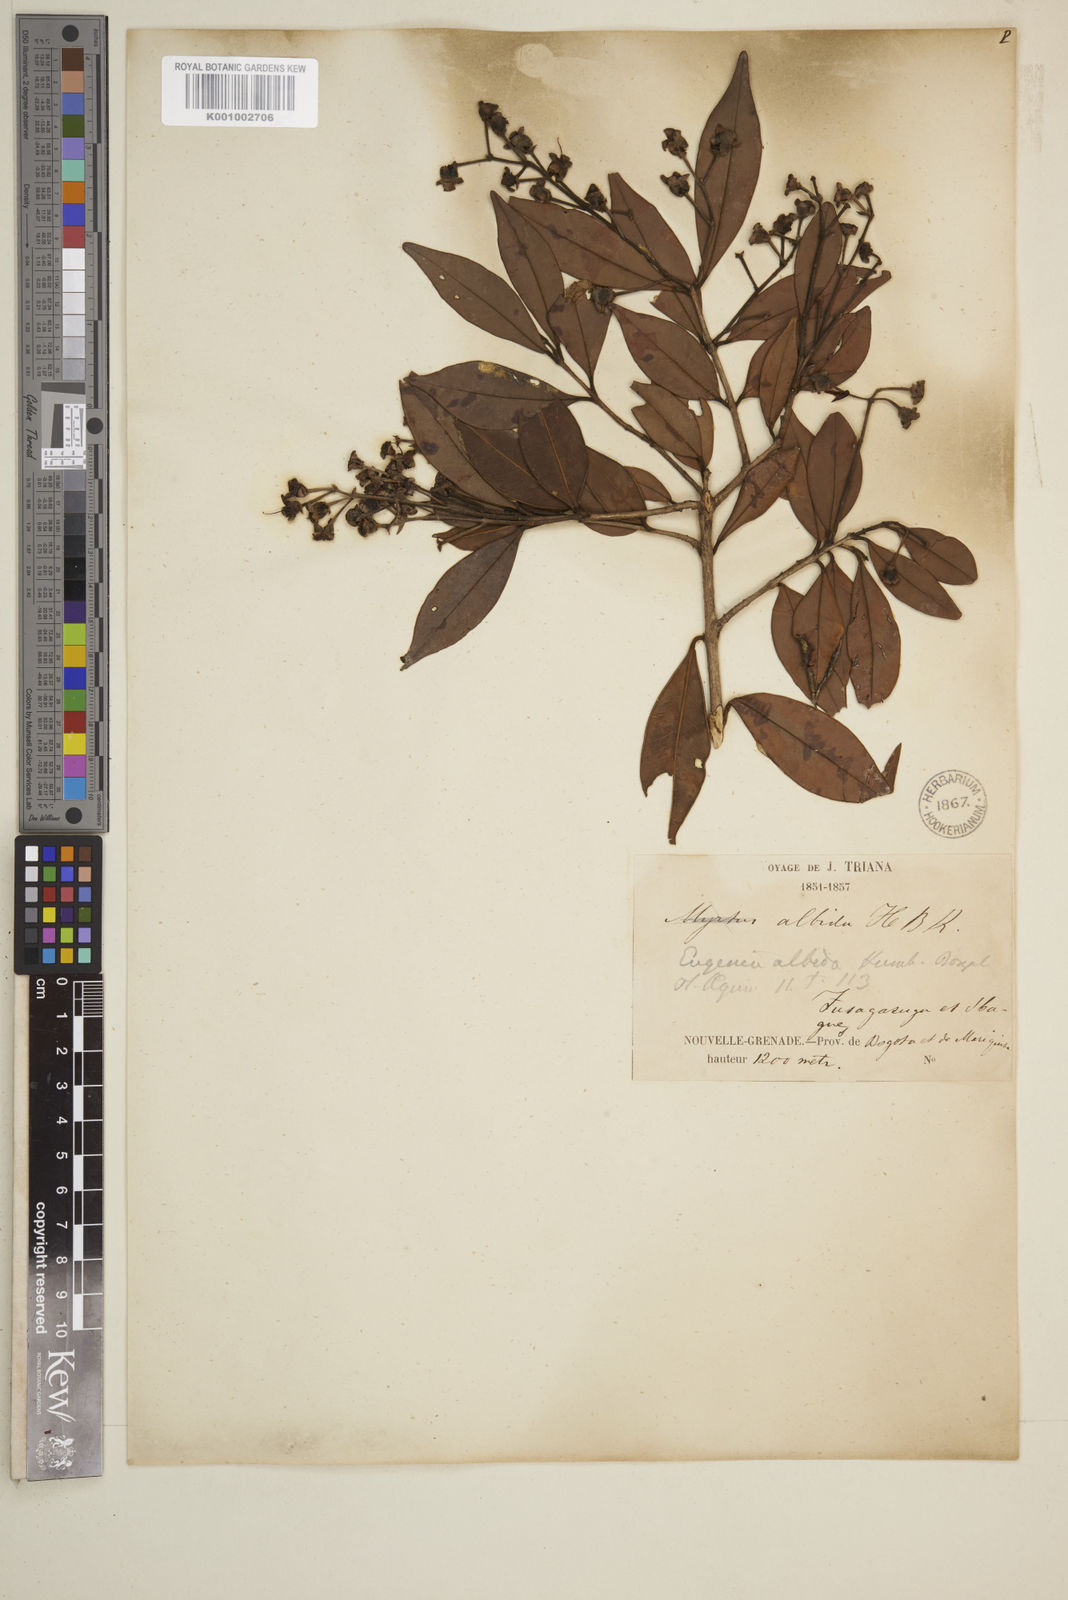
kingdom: Plantae
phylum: Tracheophyta
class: Magnoliopsida
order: Myrtales
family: Myrtaceae
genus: Eugenia
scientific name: Eugenia albida
